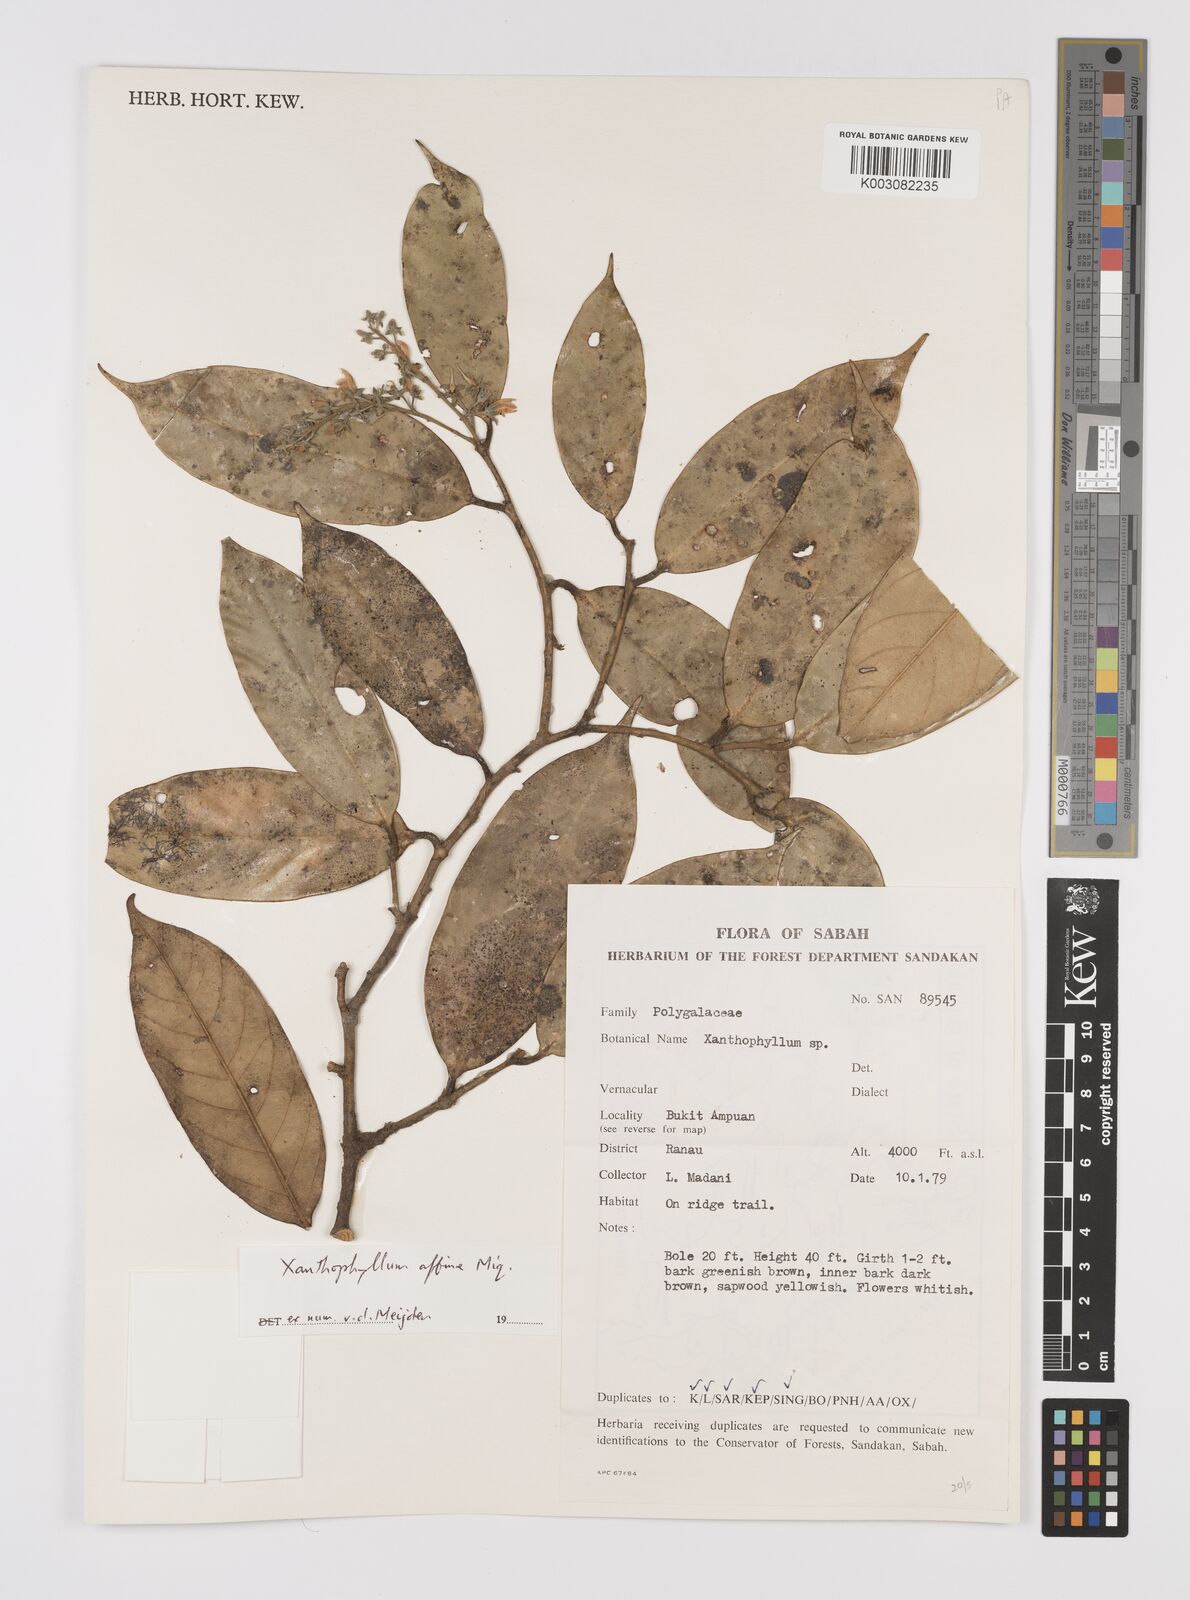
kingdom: Plantae
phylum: Tracheophyta
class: Magnoliopsida
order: Fabales
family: Polygalaceae
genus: Xanthophyllum
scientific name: Xanthophyllum flavescens
